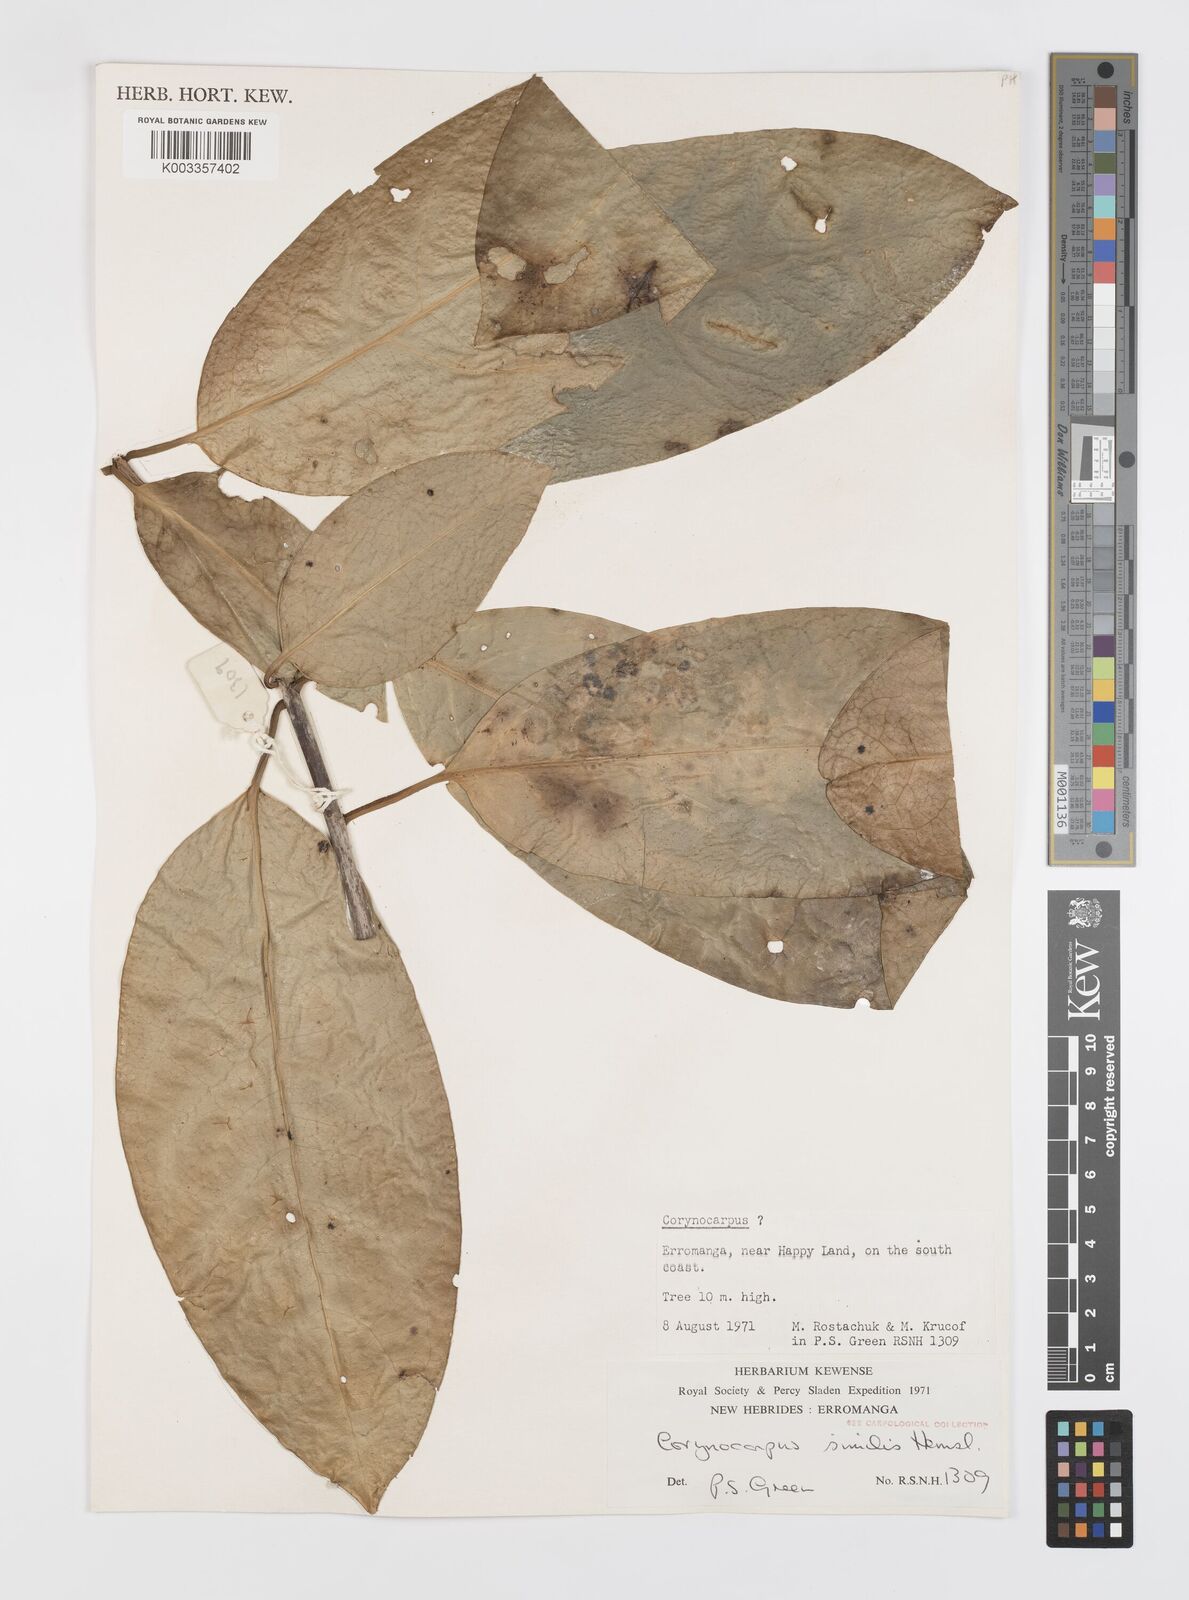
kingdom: Plantae
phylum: Tracheophyta
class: Magnoliopsida
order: Cucurbitales
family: Corynocarpaceae
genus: Corynocarpus
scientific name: Corynocarpus similis
